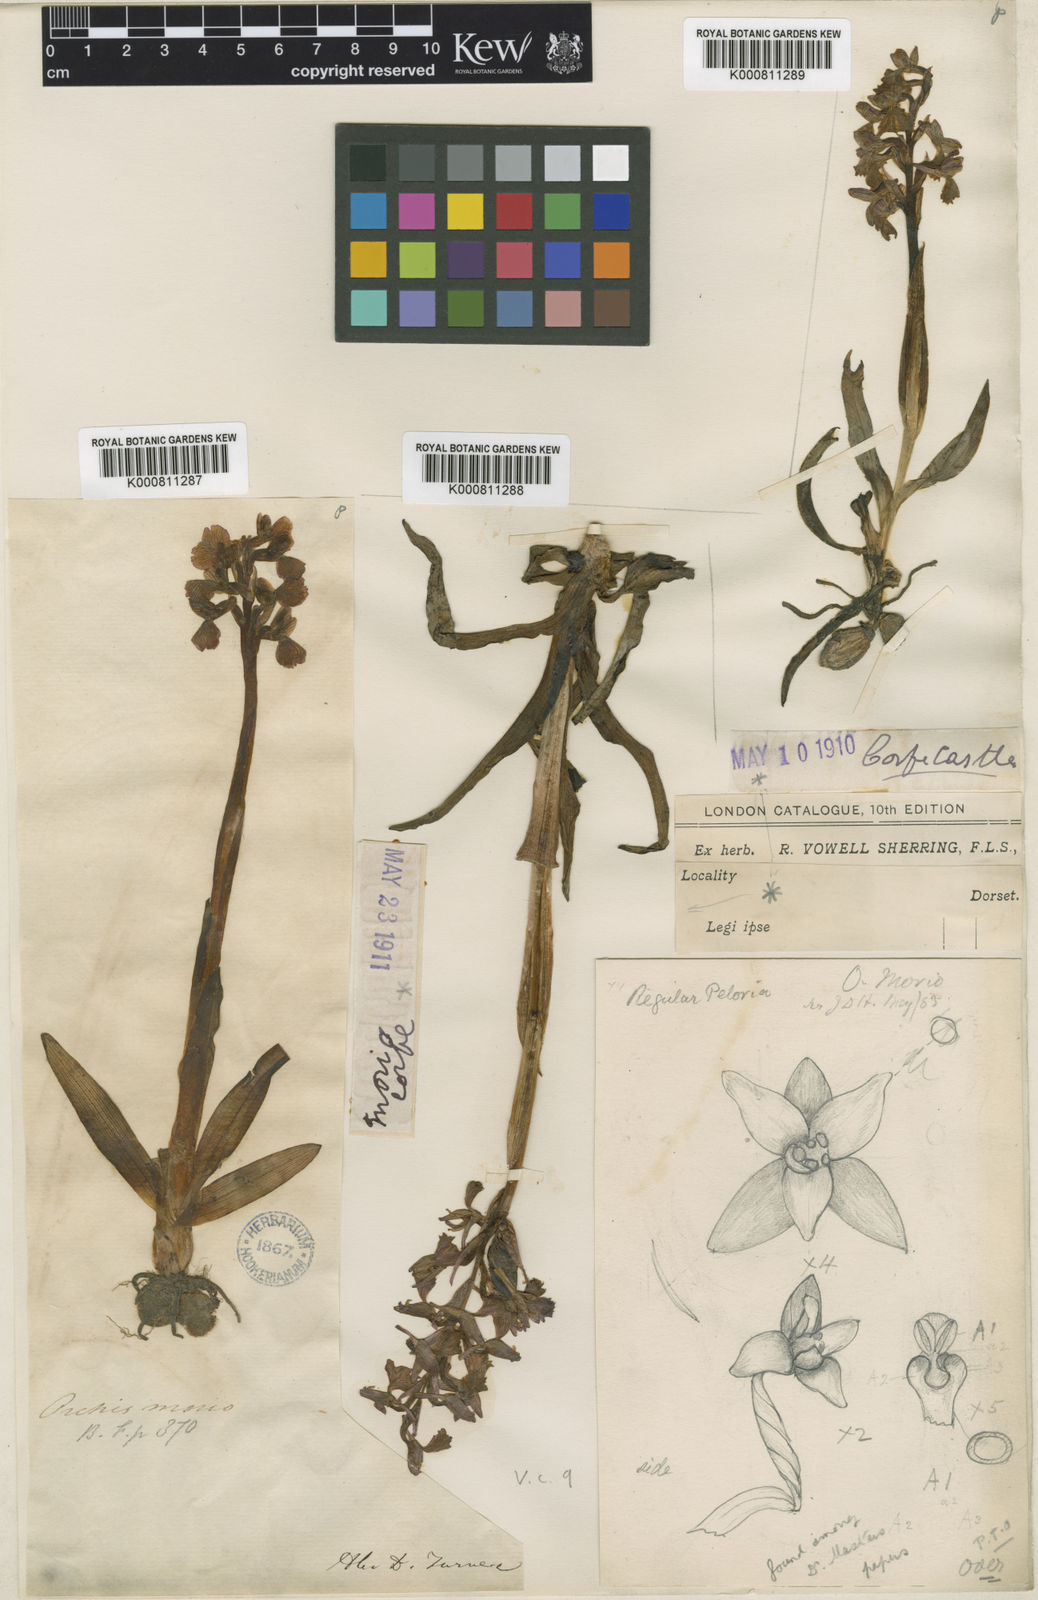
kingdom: Plantae
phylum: Tracheophyta
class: Liliopsida
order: Asparagales
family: Orchidaceae
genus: Anacamptis
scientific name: Anacamptis morio
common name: Green-winged orchid
